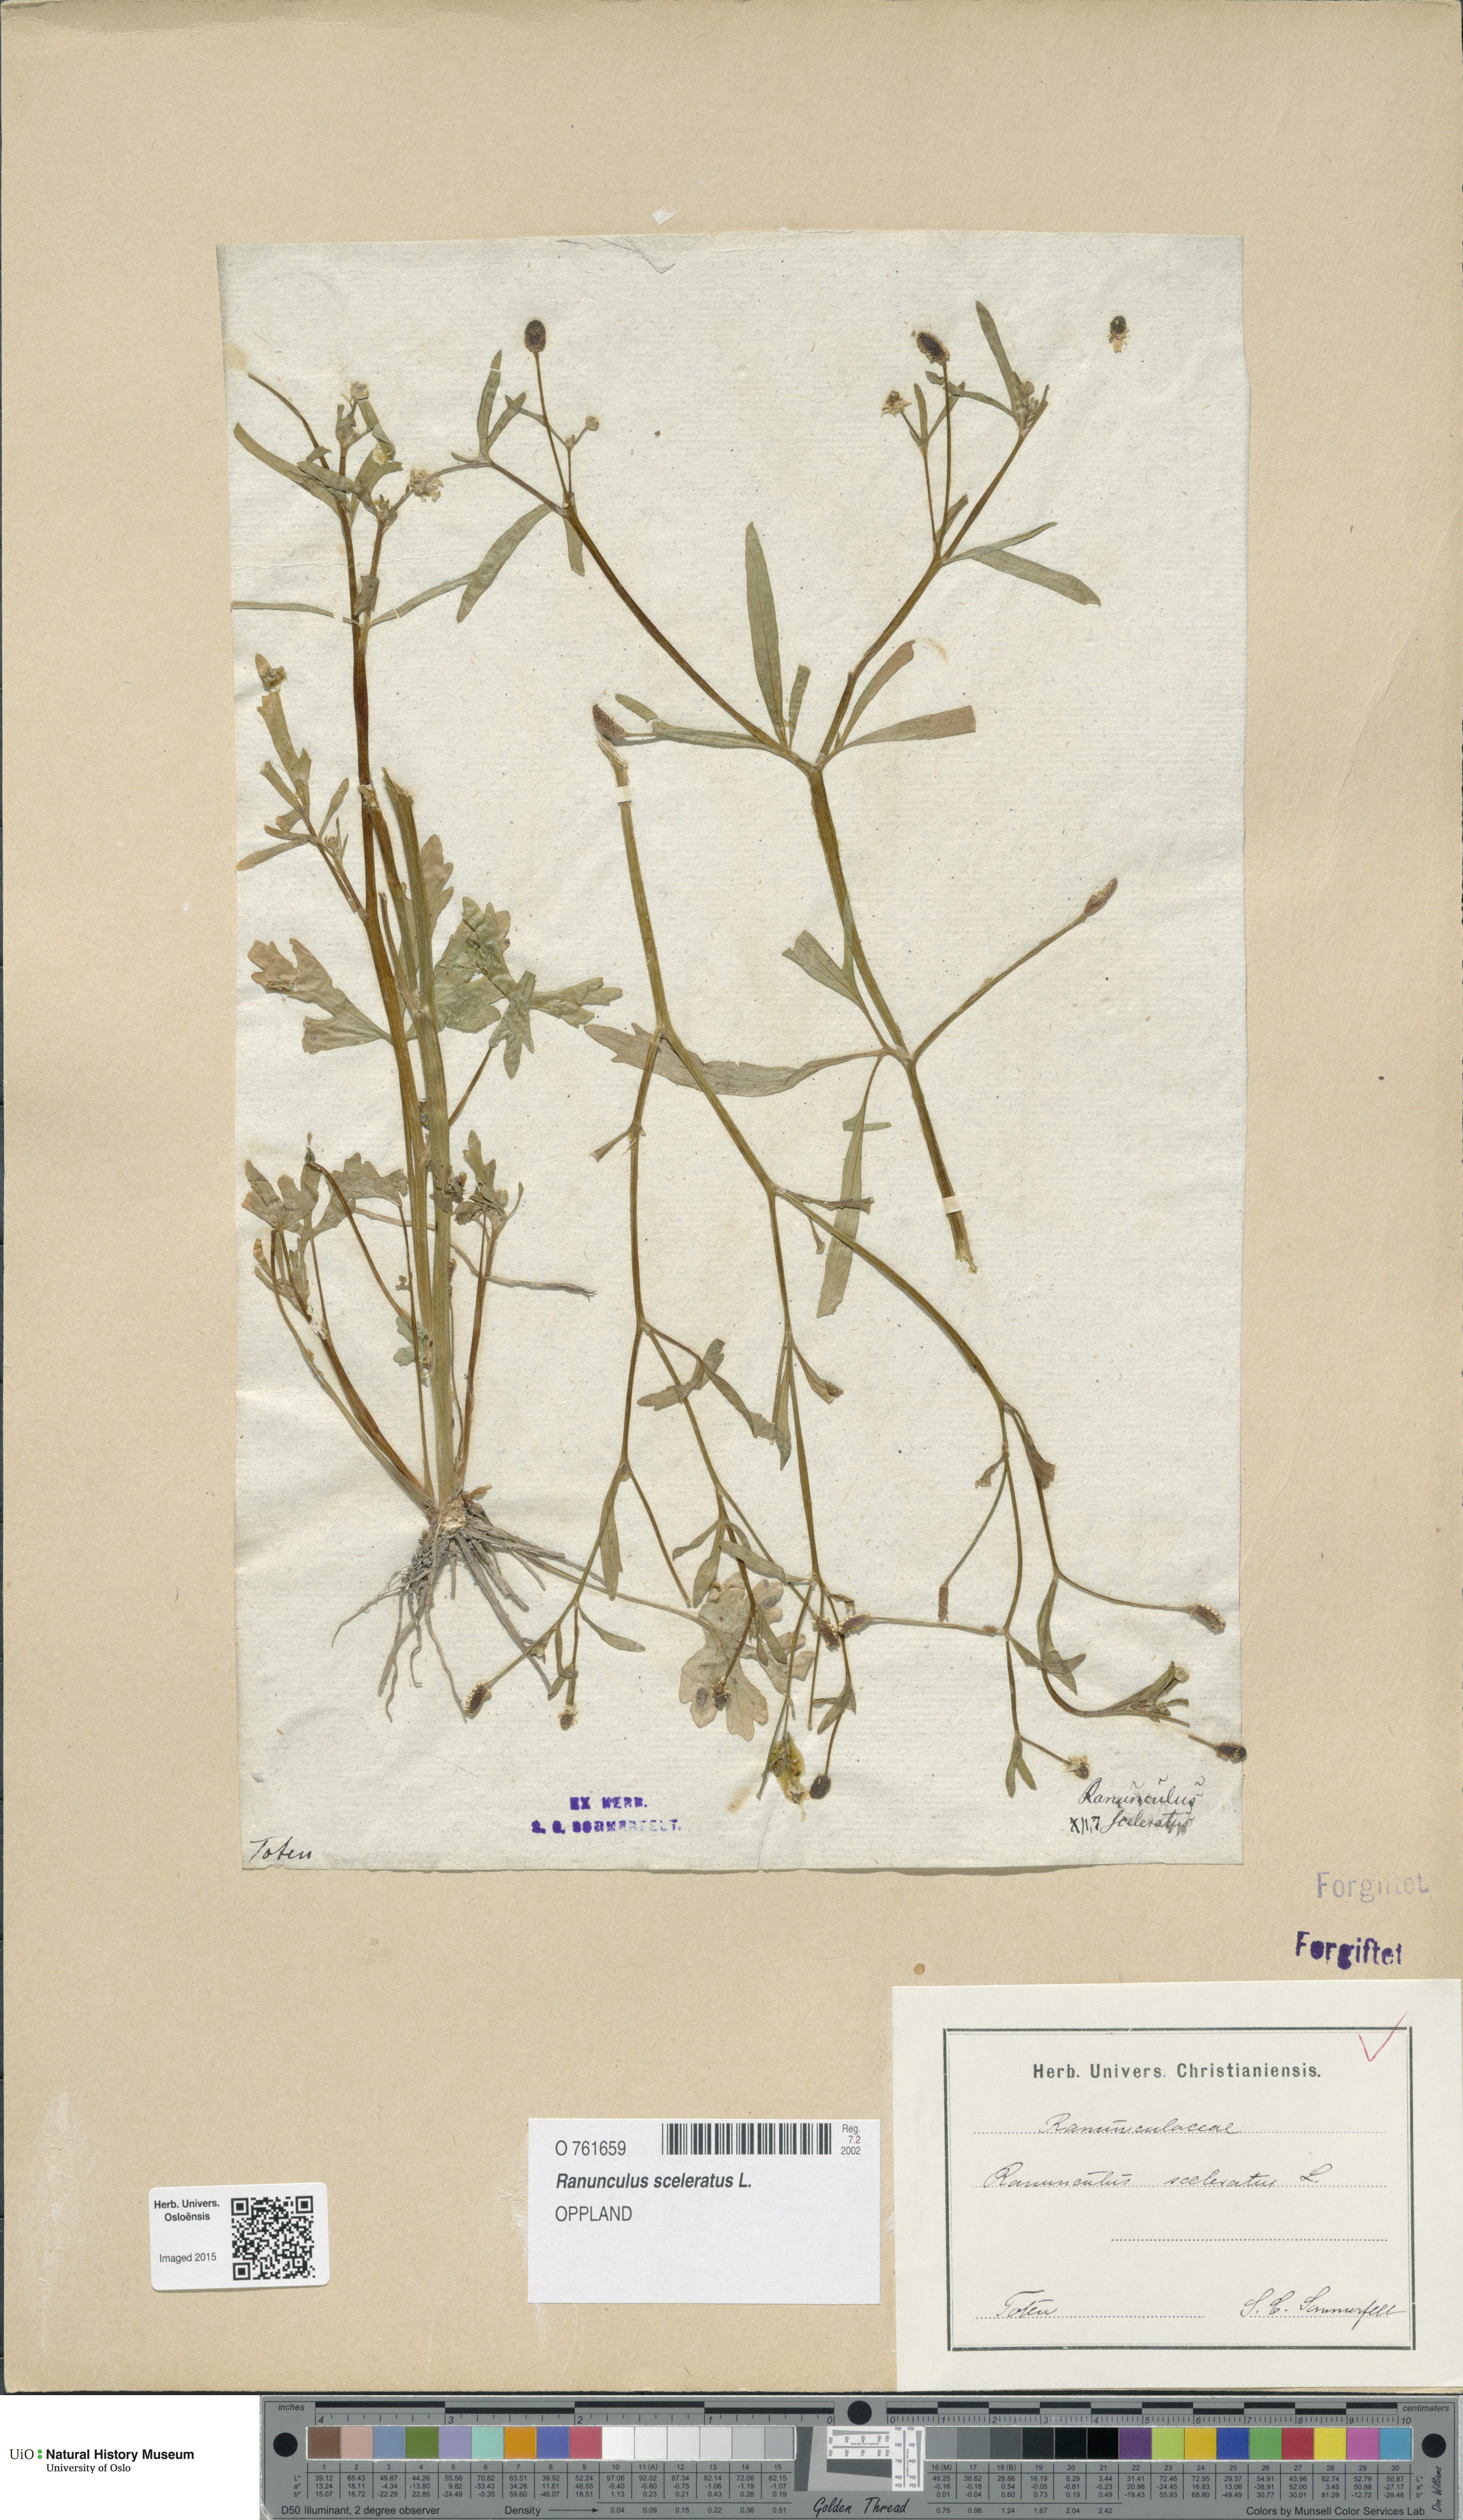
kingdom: Plantae
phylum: Tracheophyta
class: Magnoliopsida
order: Ranunculales
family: Ranunculaceae
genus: Ranunculus
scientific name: Ranunculus sceleratus
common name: Celery-leaved buttercup
